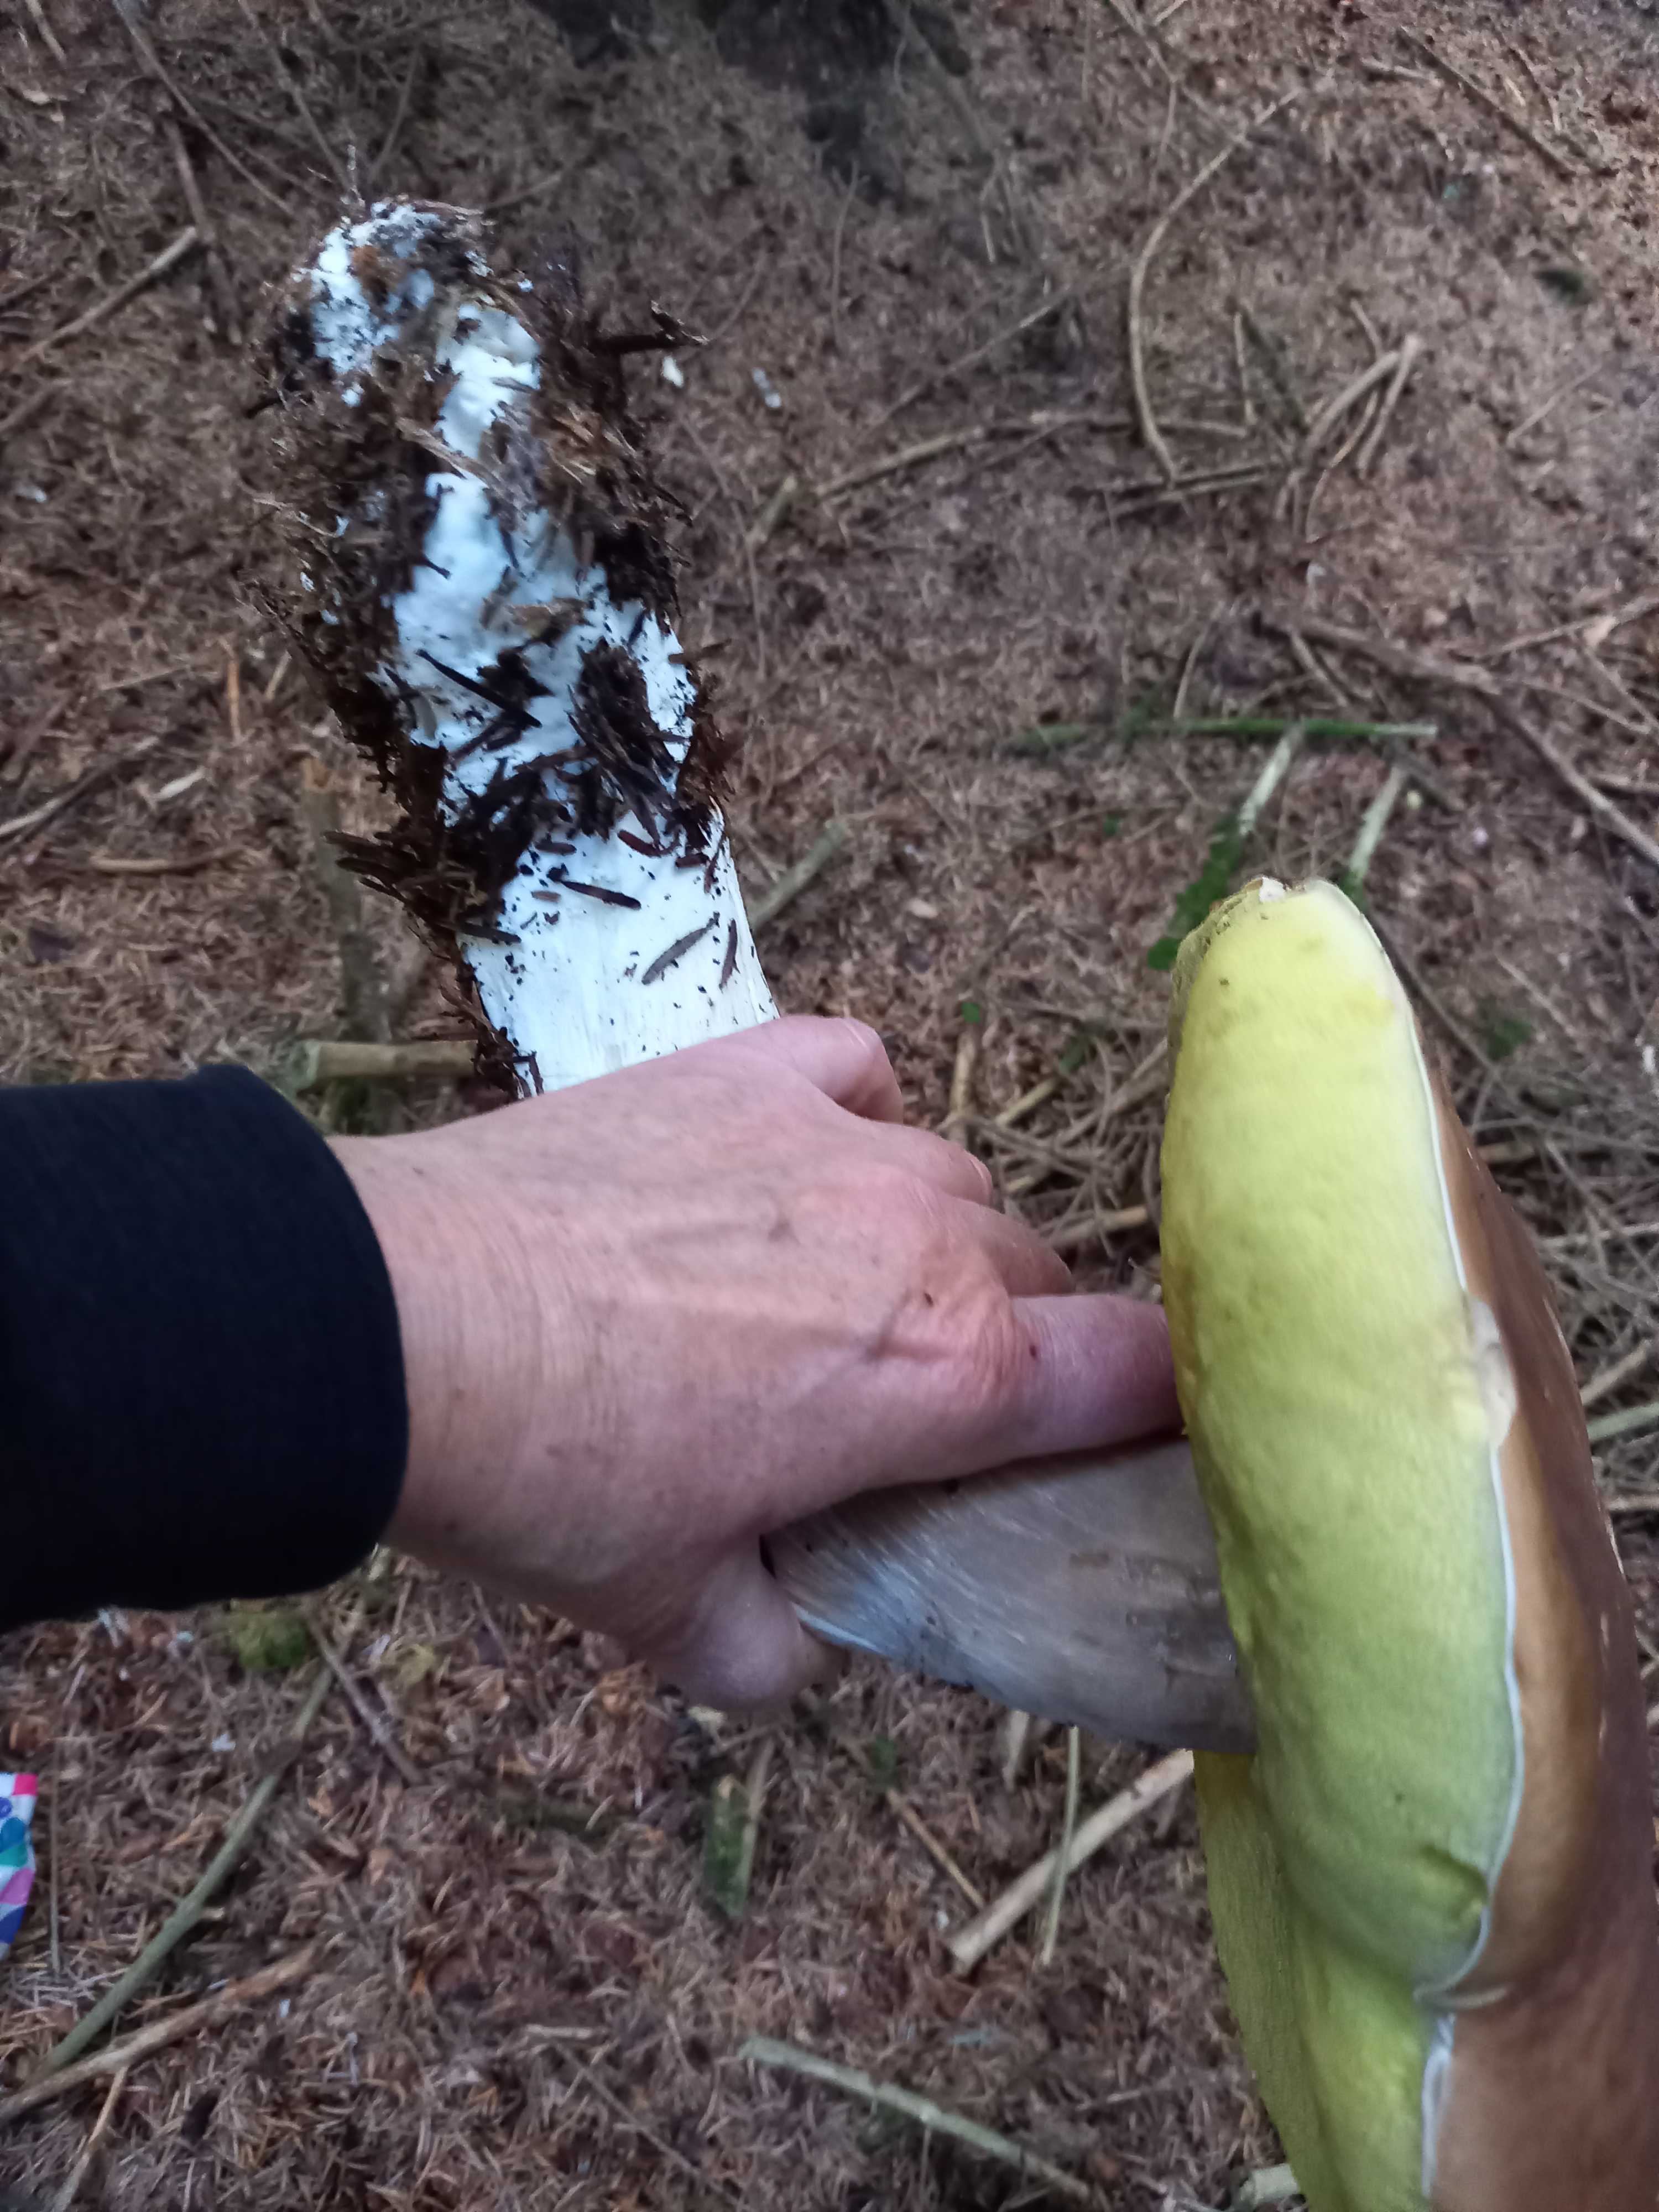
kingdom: Fungi
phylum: Basidiomycota
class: Agaricomycetes
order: Boletales
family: Boletaceae
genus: Boletus
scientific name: Boletus edulis
